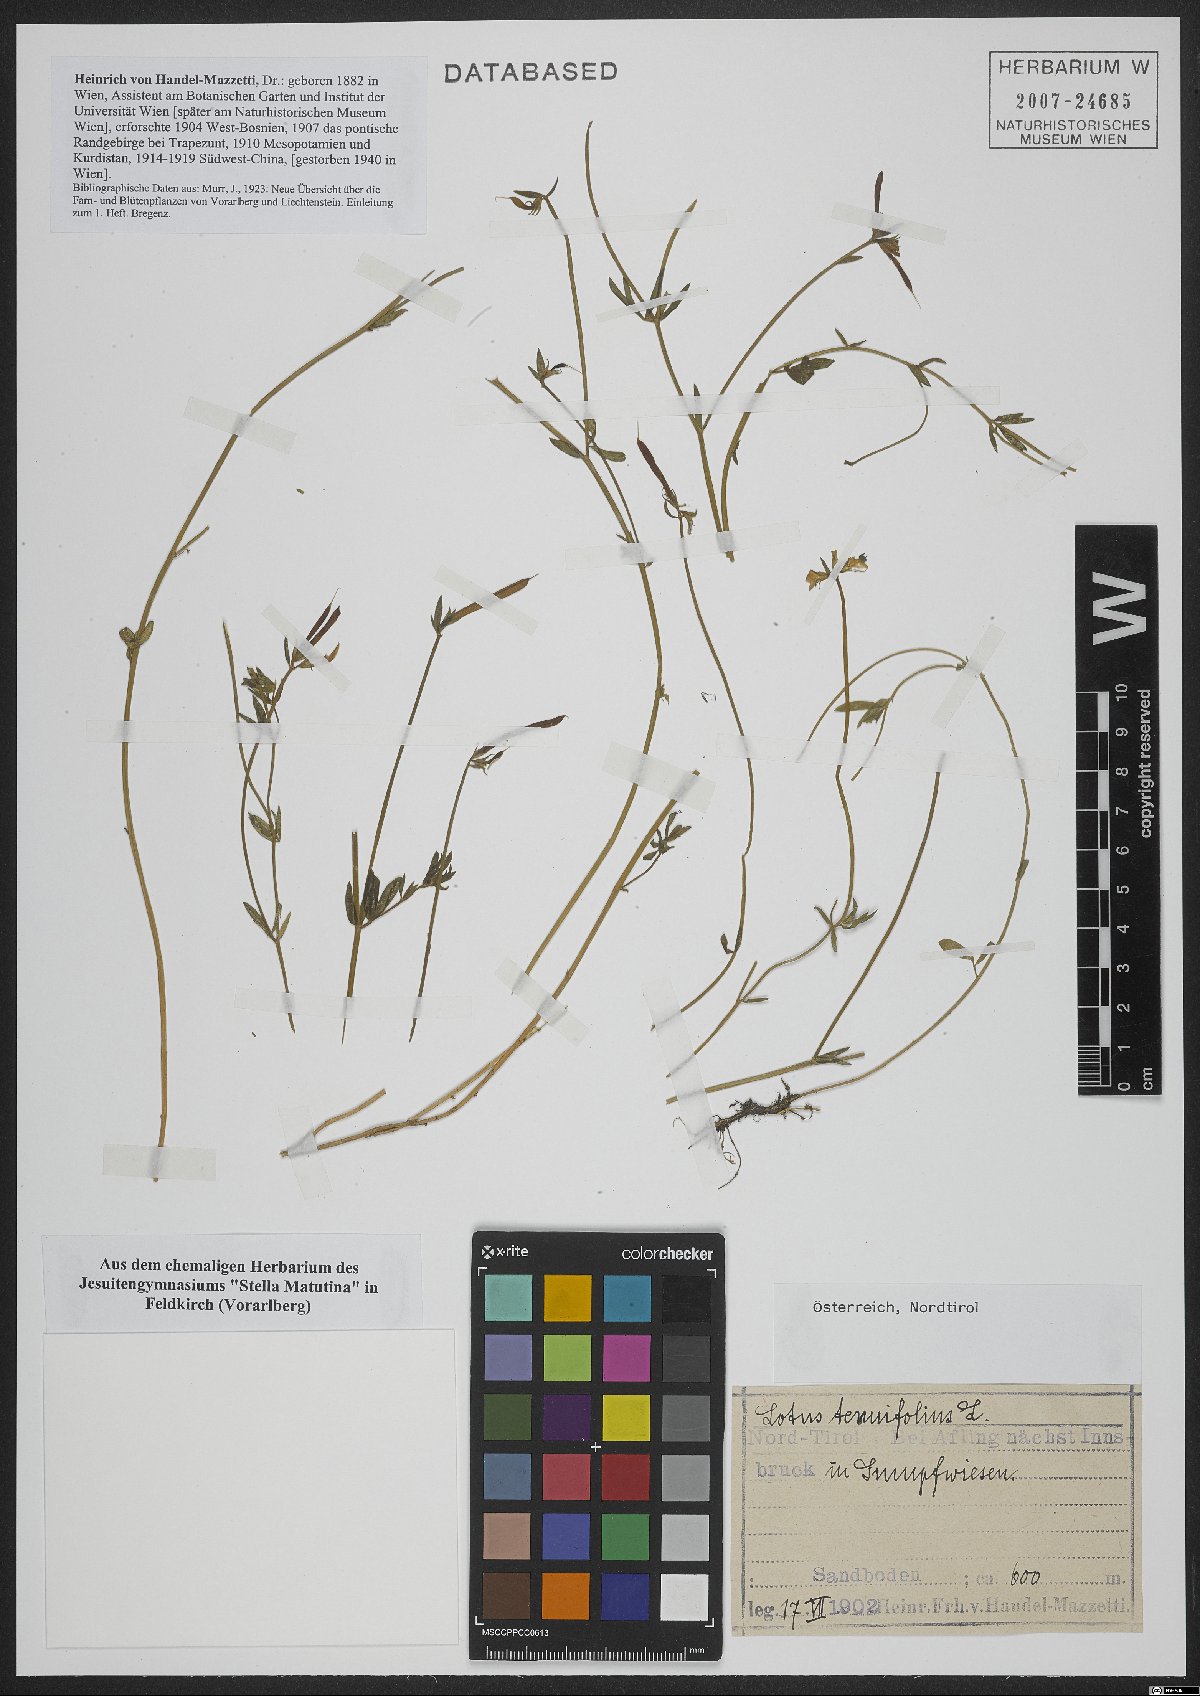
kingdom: Plantae
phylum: Tracheophyta
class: Magnoliopsida
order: Fabales
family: Fabaceae
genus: Lotus
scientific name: Lotus corniculatus
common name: Common bird's-foot-trefoil
